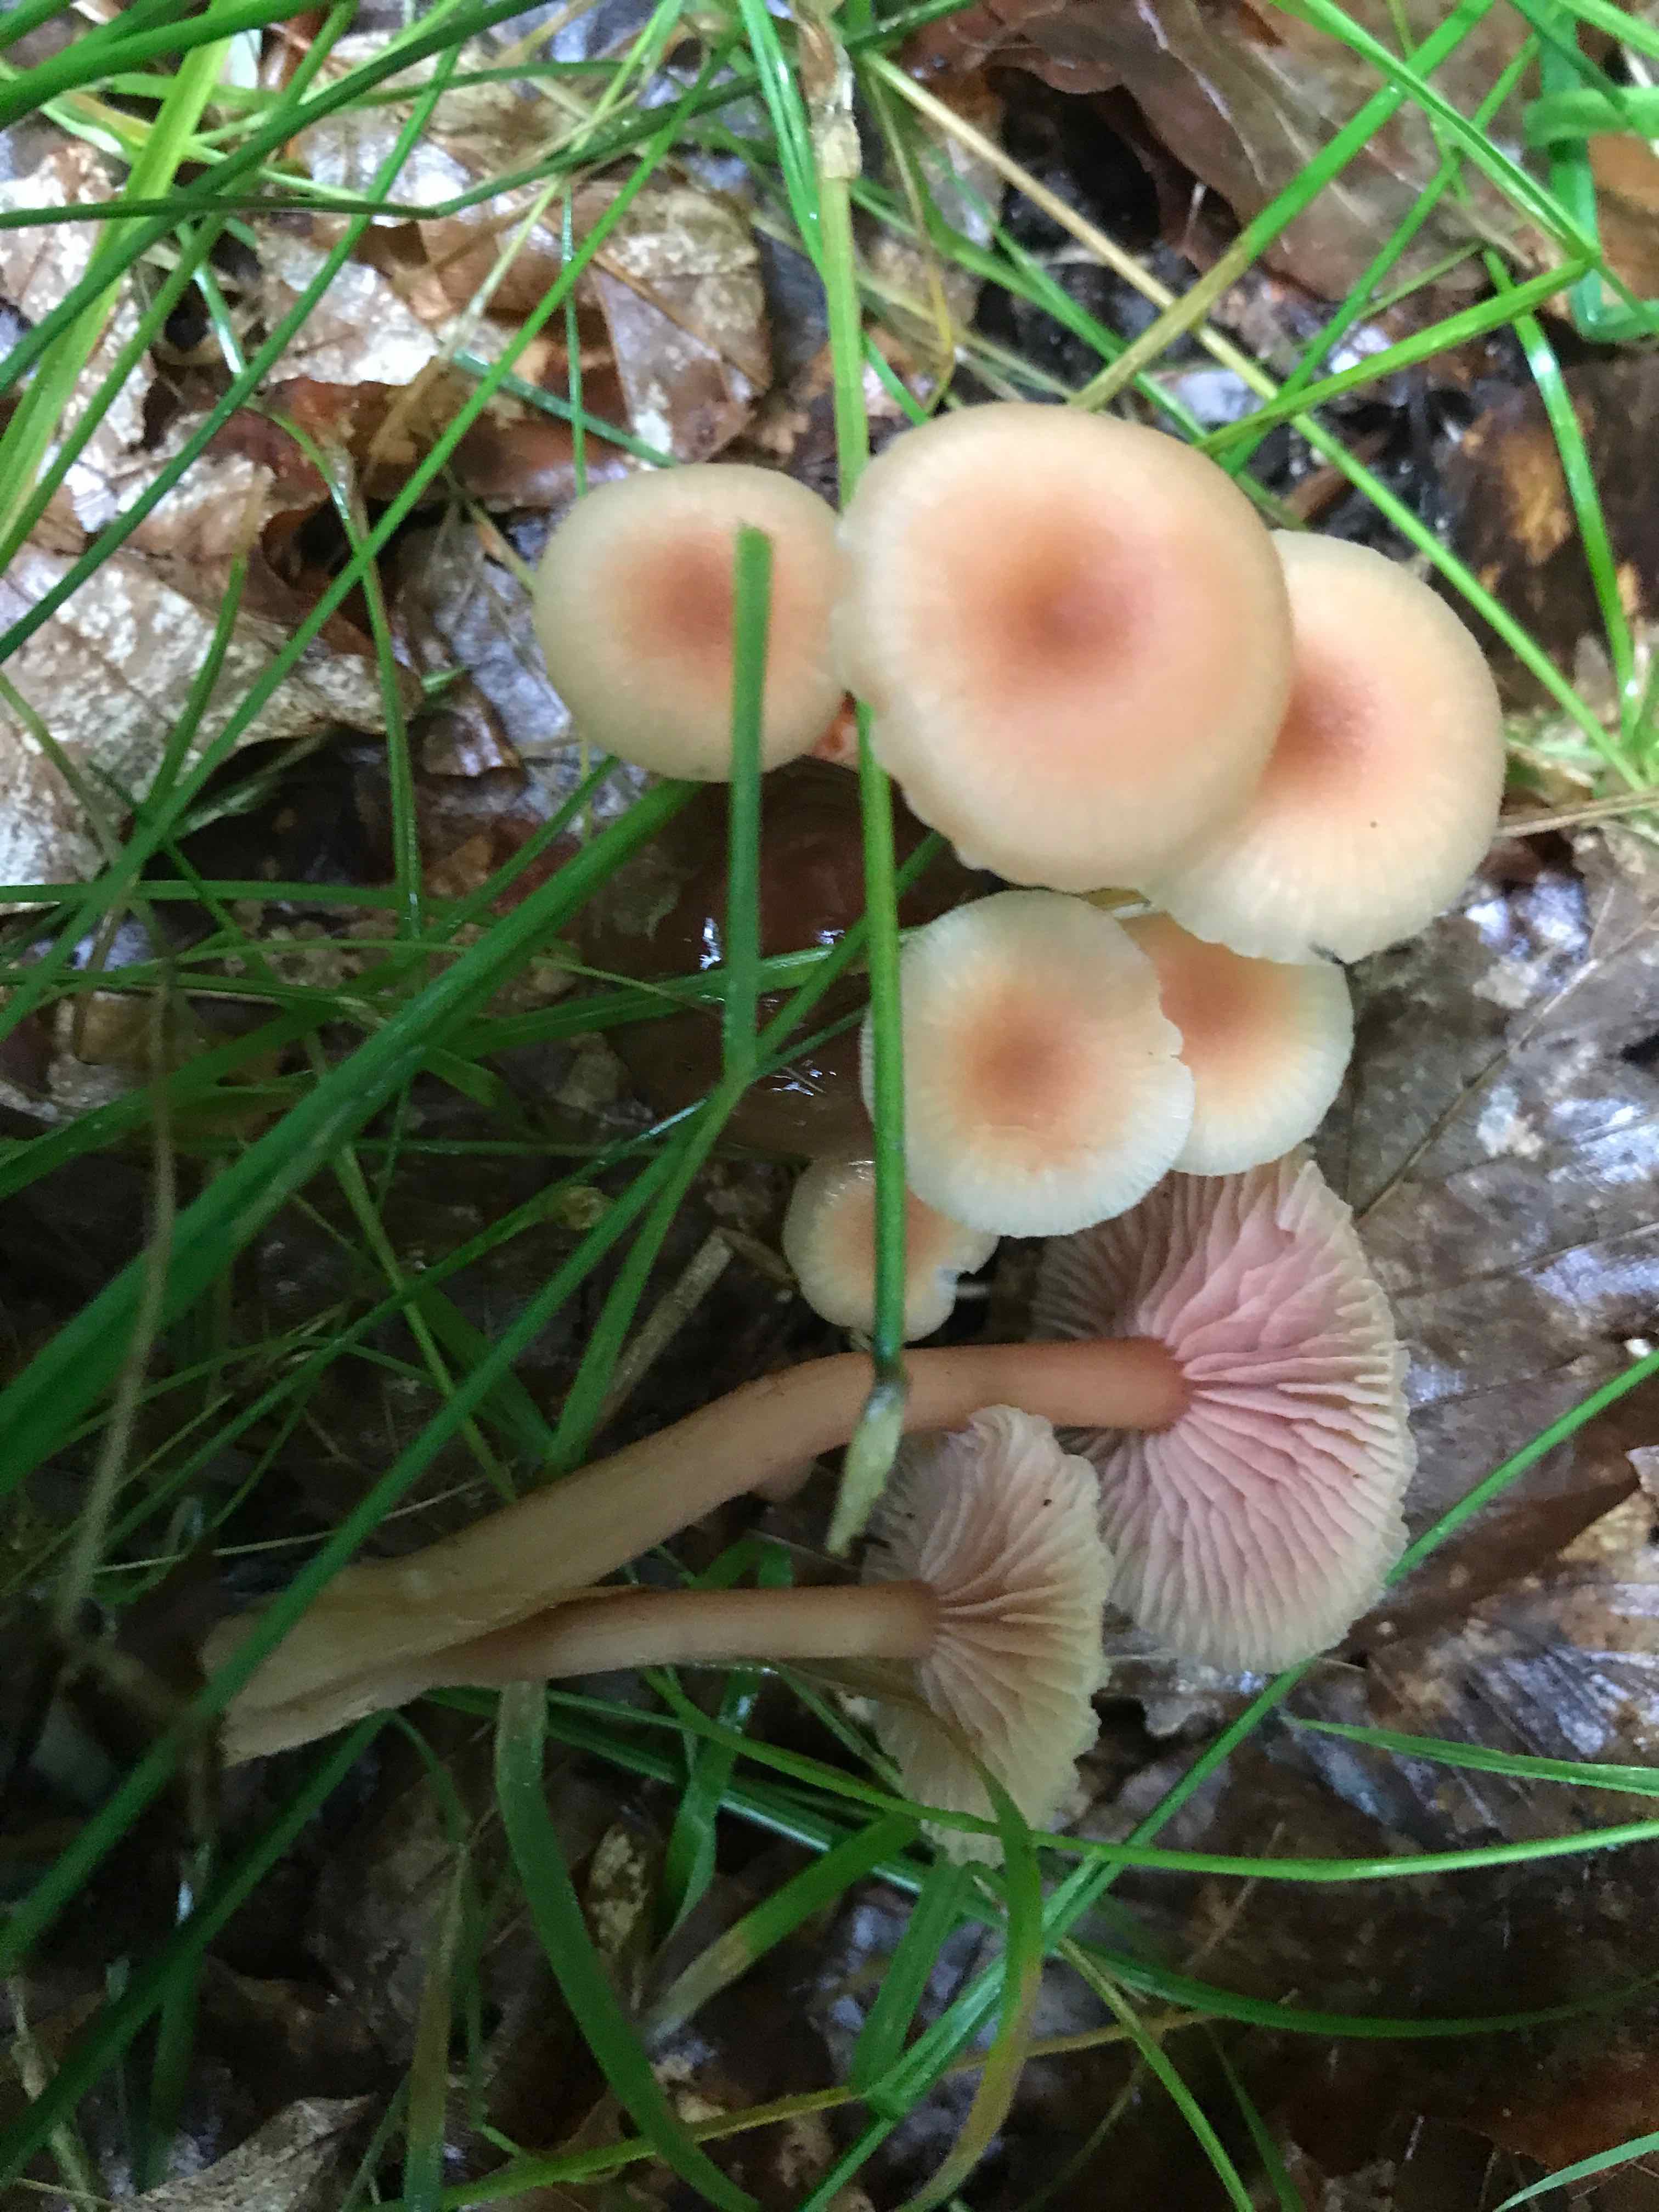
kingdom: Fungi
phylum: Basidiomycota
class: Agaricomycetes
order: Agaricales
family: Hydnangiaceae
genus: Laccaria
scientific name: Laccaria laccata
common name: rød ametysthat
